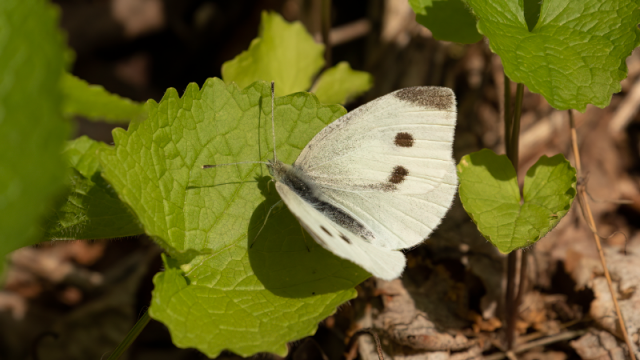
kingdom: Animalia
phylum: Arthropoda
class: Insecta
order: Lepidoptera
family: Pieridae
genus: Pieris
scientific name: Pieris rapae
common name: Cabbage White
